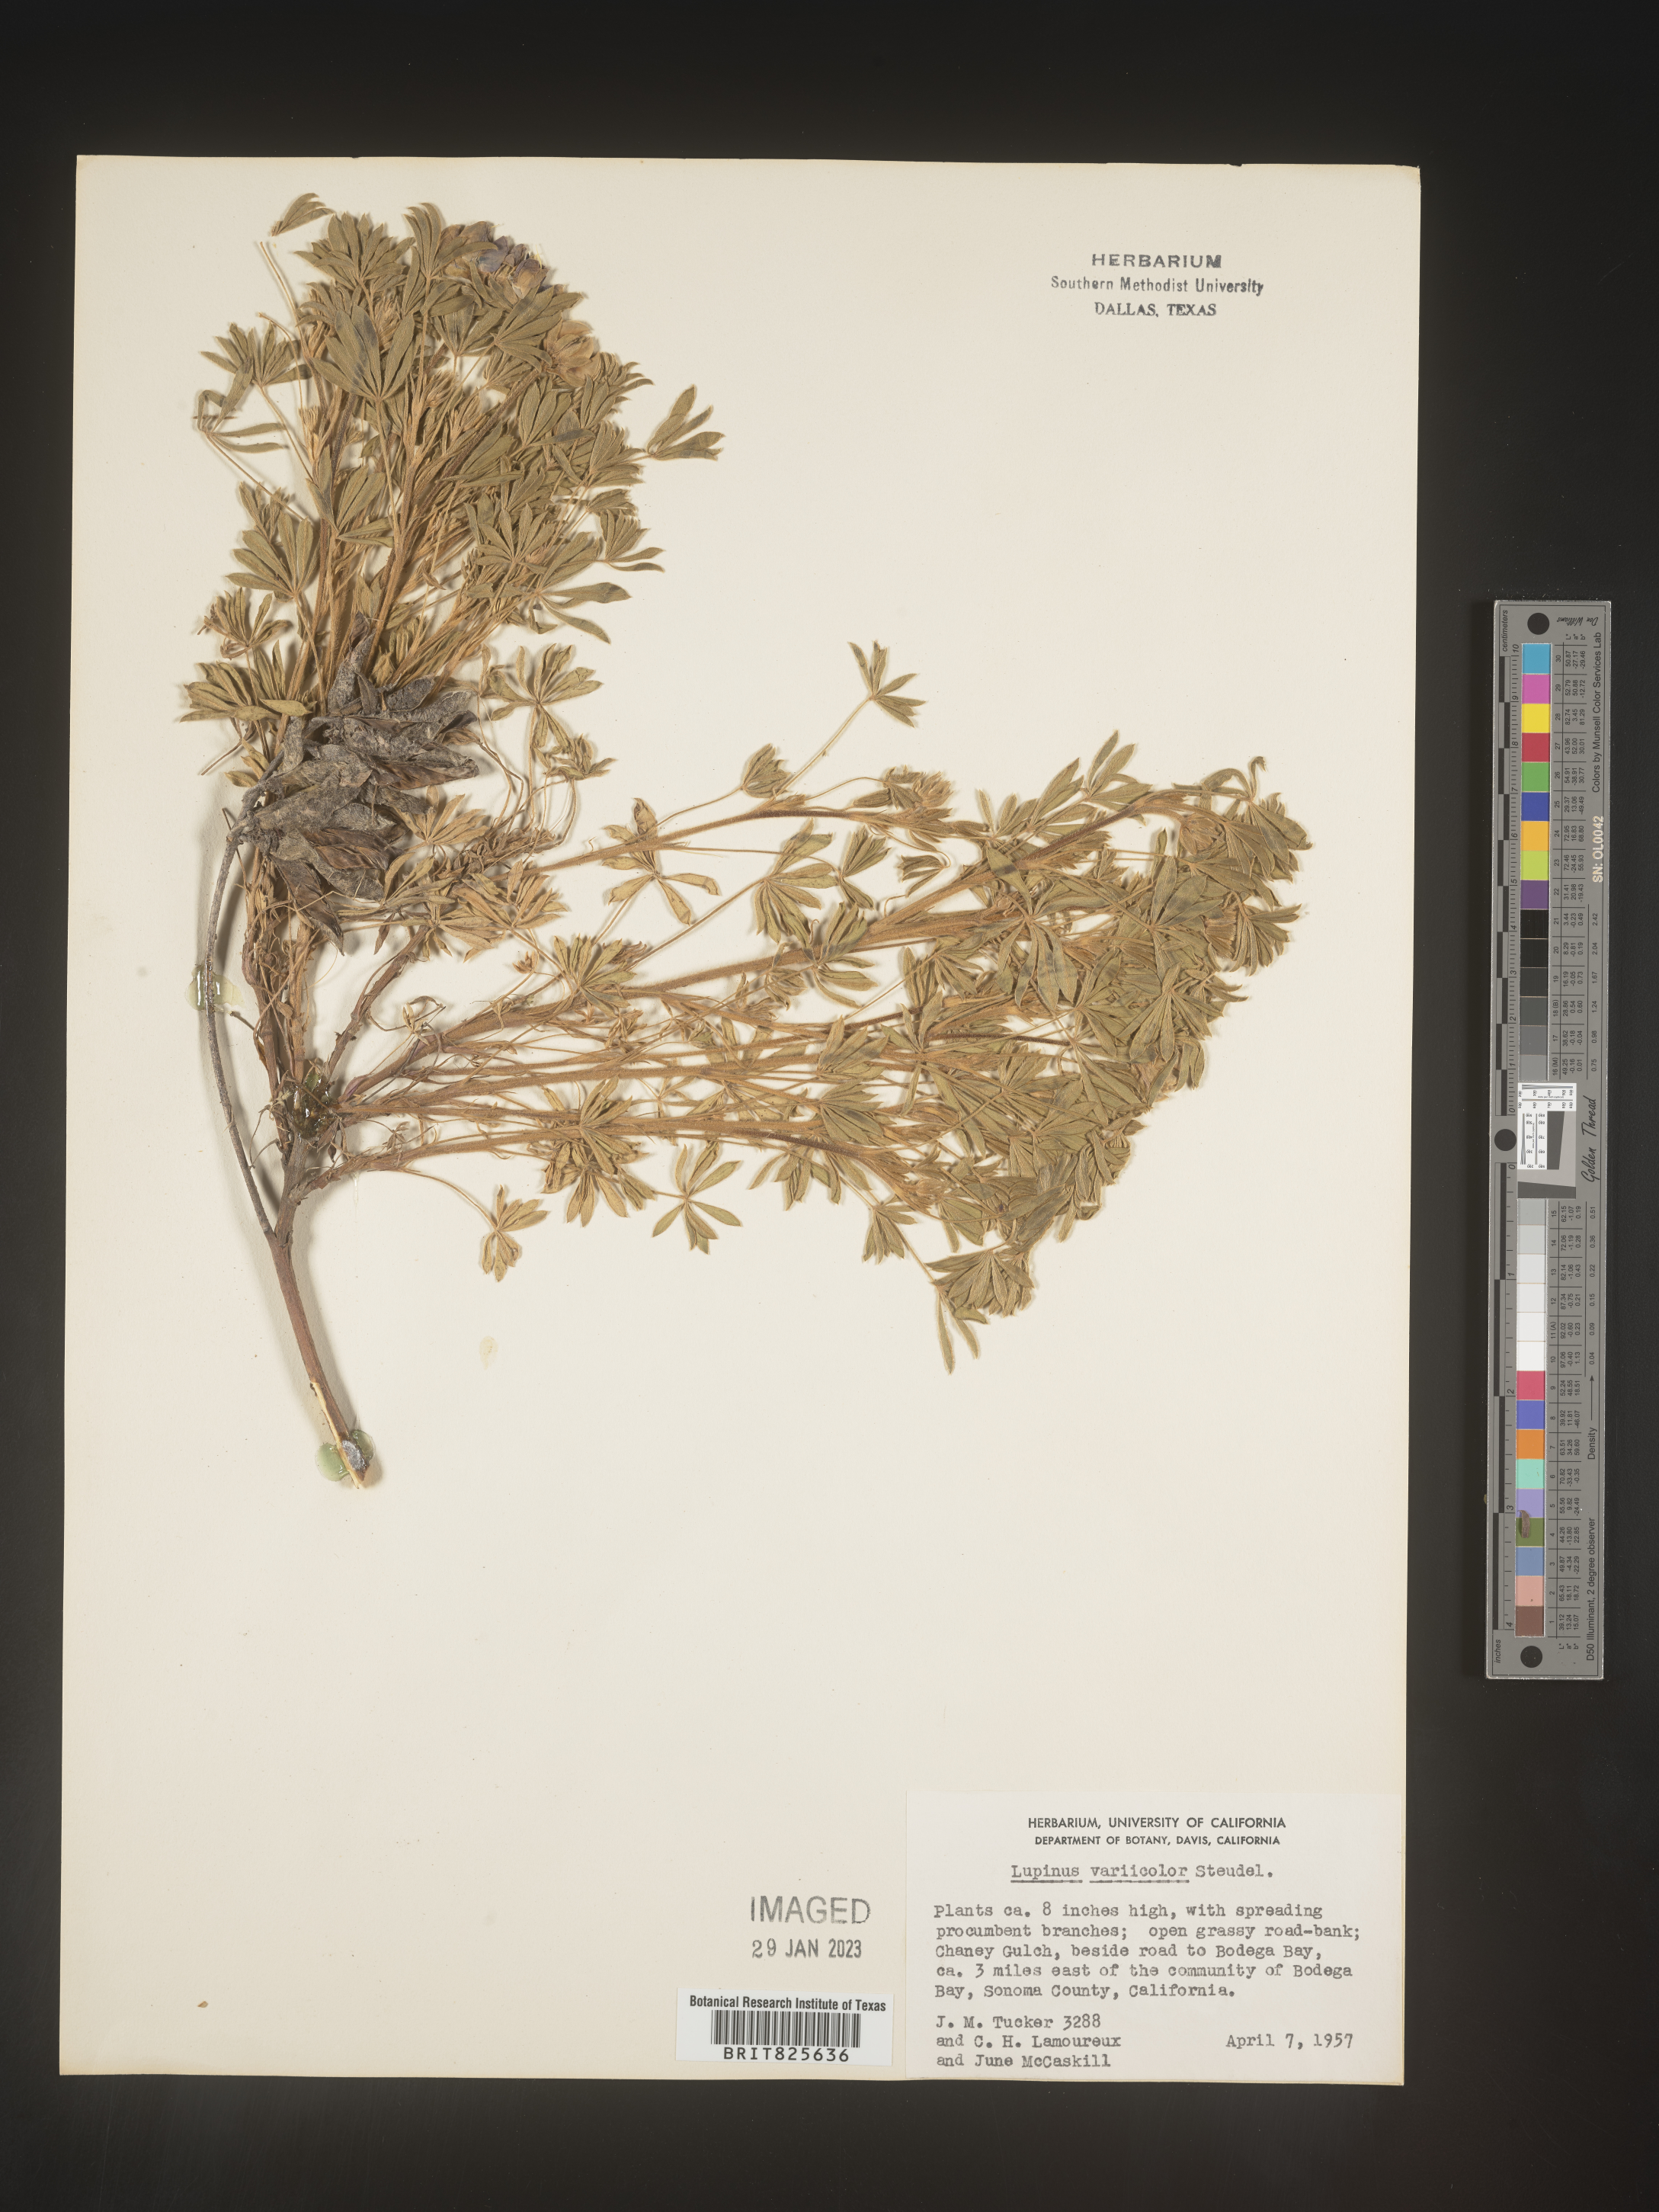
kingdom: Plantae
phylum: Tracheophyta
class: Magnoliopsida
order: Fabales
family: Fabaceae
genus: Lupinus
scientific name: Lupinus
